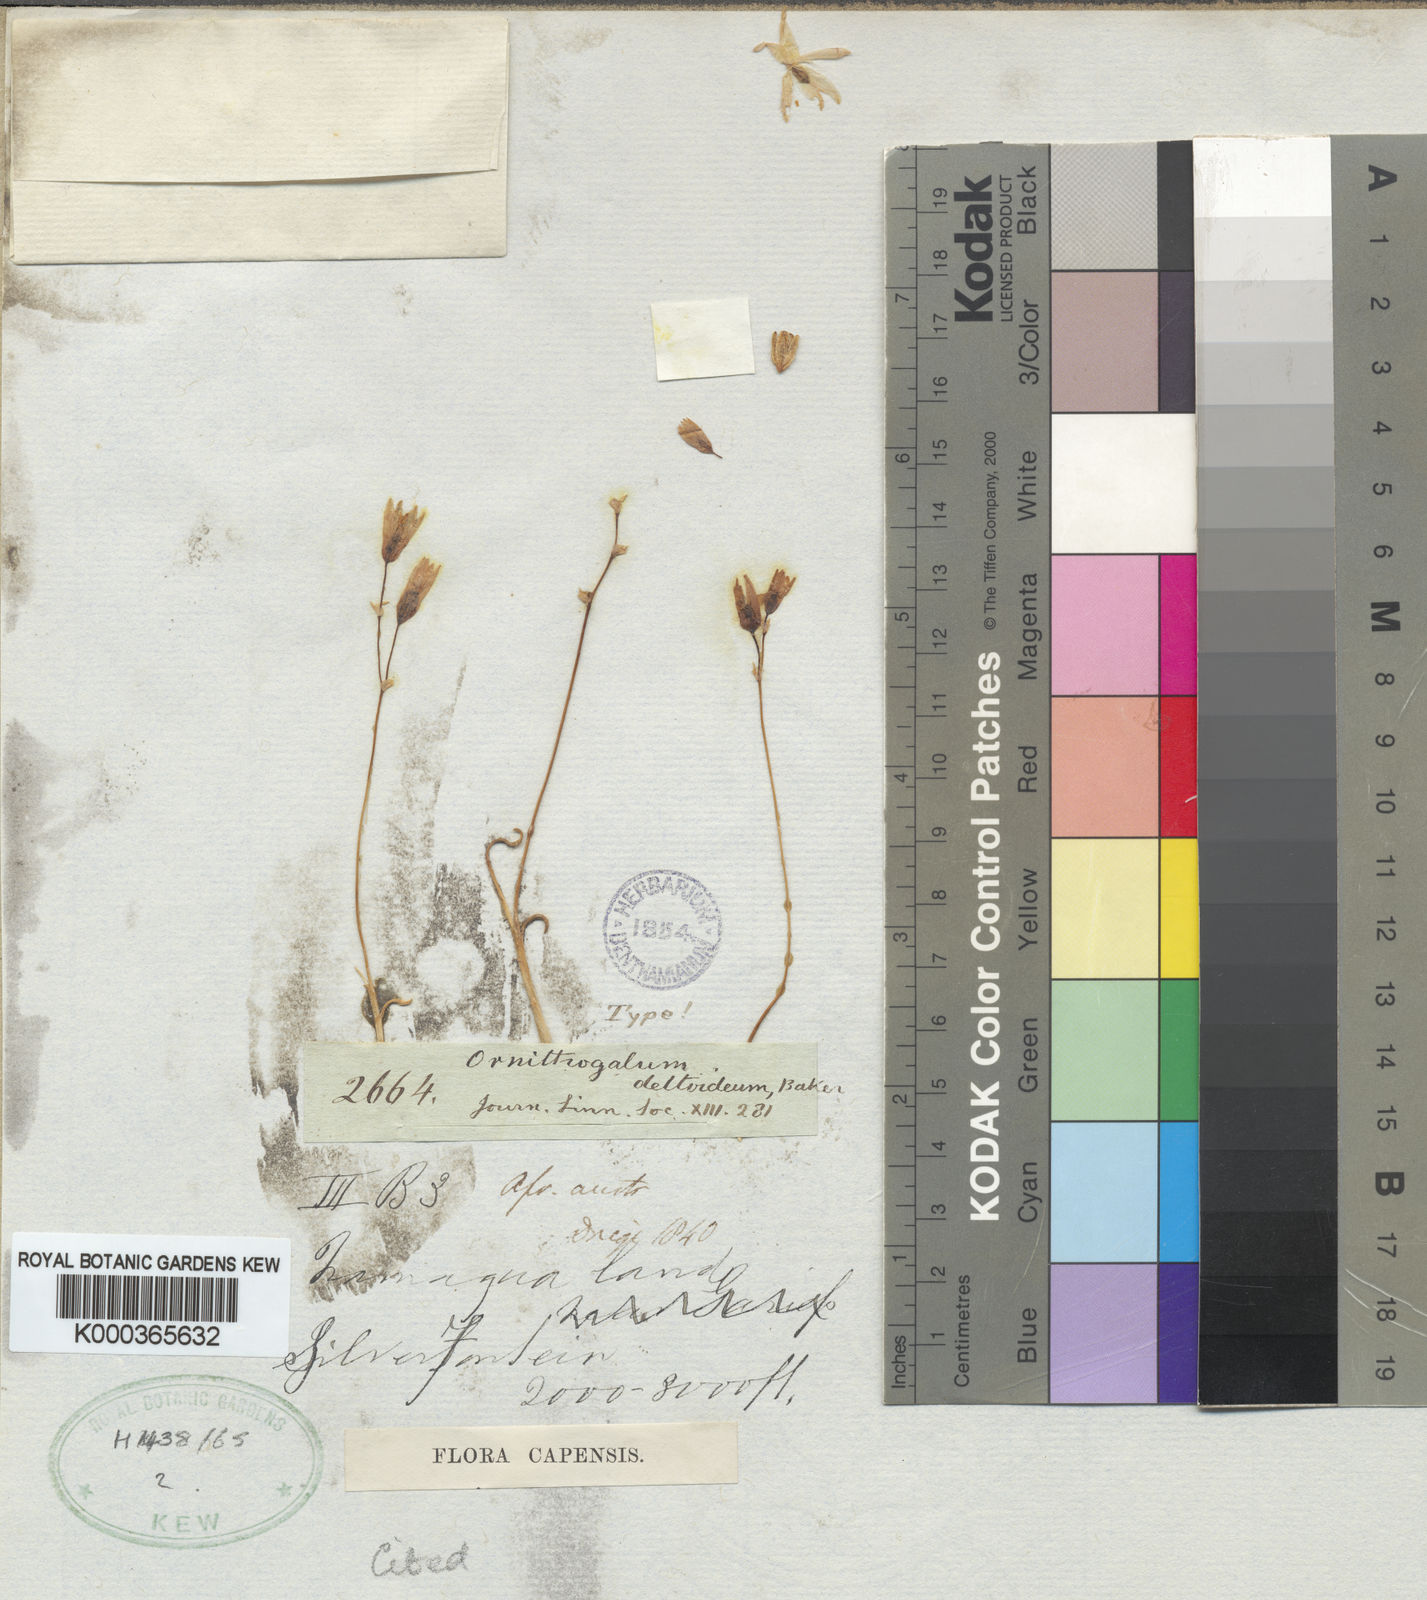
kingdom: Plantae
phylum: Tracheophyta
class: Liliopsida
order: Asparagales
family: Asparagaceae
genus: Ornithogalum
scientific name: Ornithogalum deltoideum
